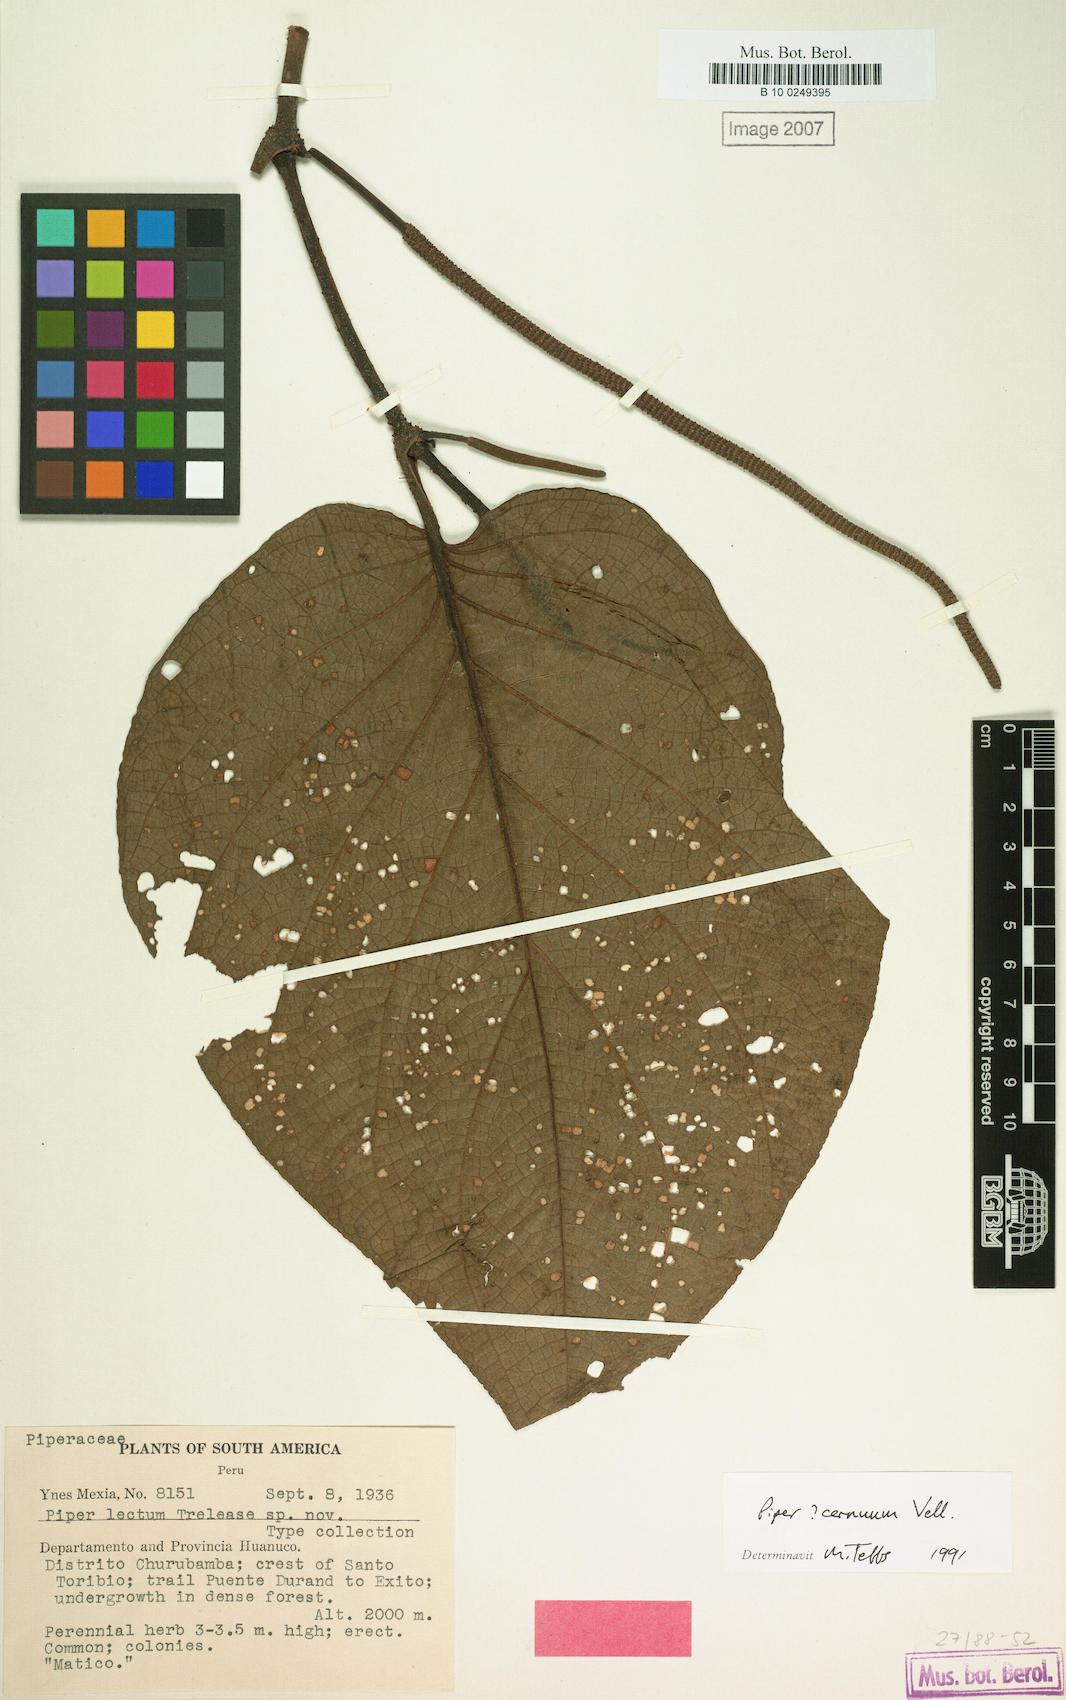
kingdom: Plantae
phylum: Tracheophyta
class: Magnoliopsida
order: Piperales
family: Piperaceae
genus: Piper
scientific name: Piper cernuum
